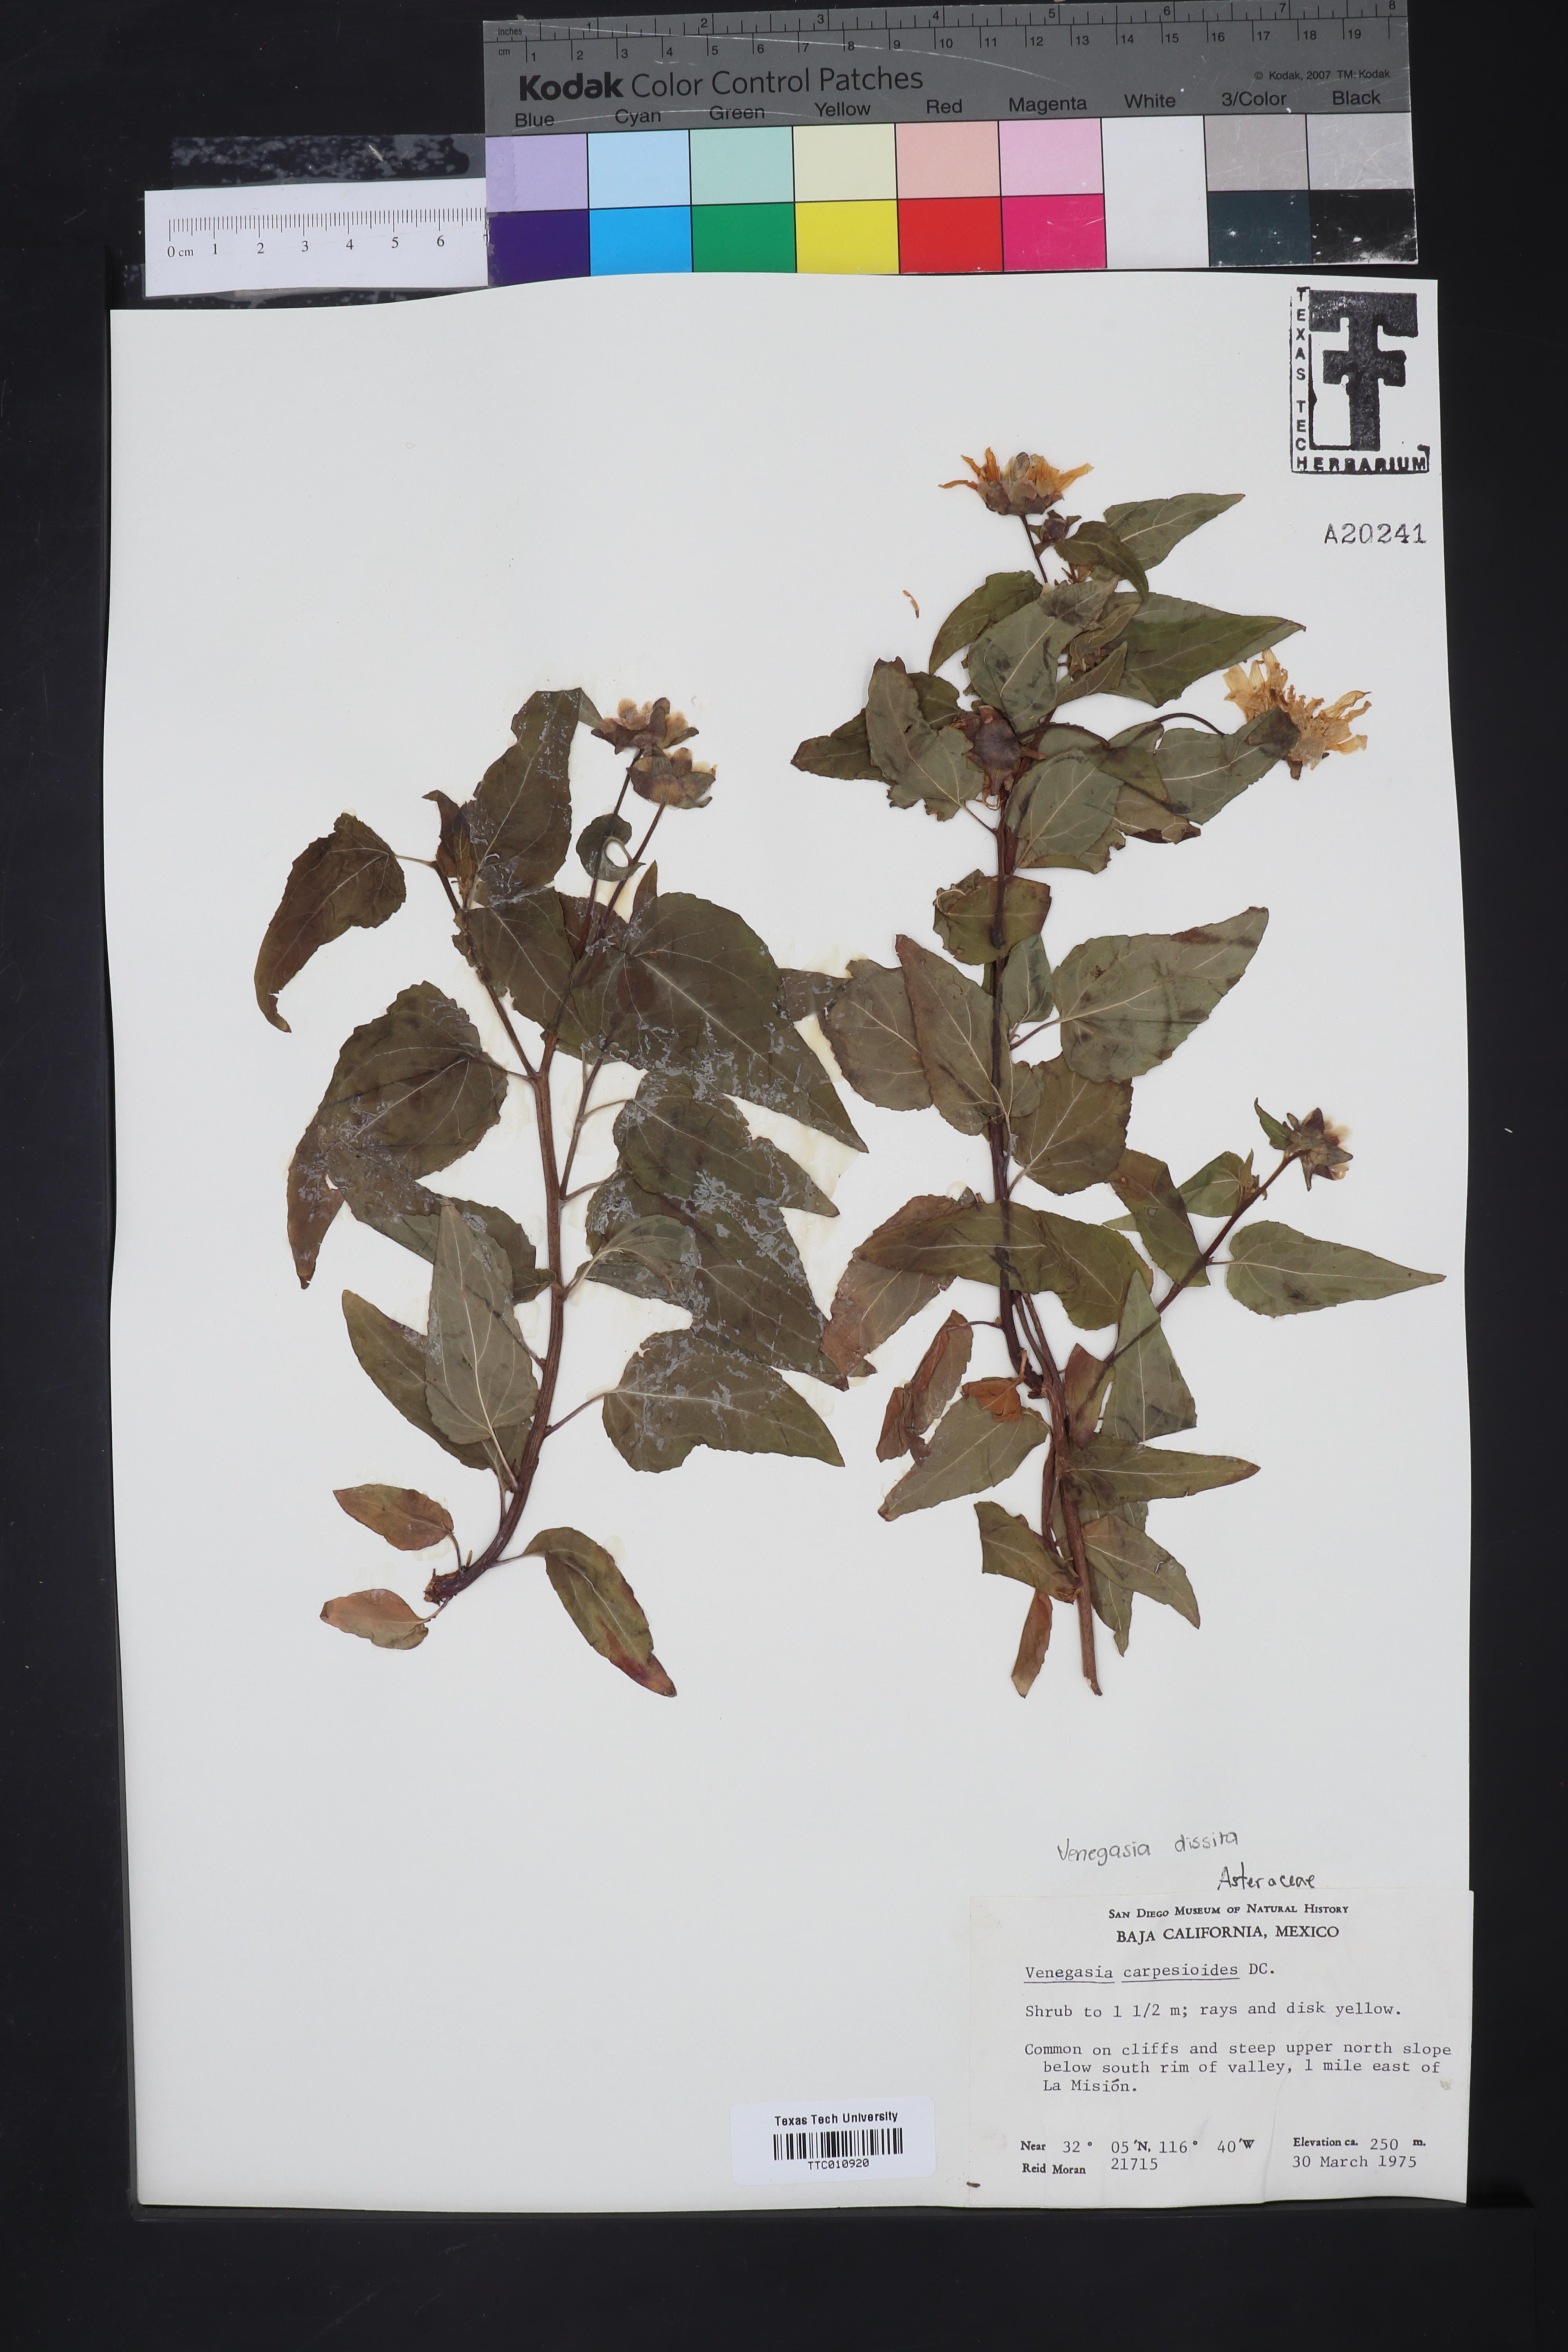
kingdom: Plantae
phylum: Tracheophyta
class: Magnoliopsida
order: Asterales
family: Asteraceae
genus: Venegasia
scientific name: Venegasia carpesioides
